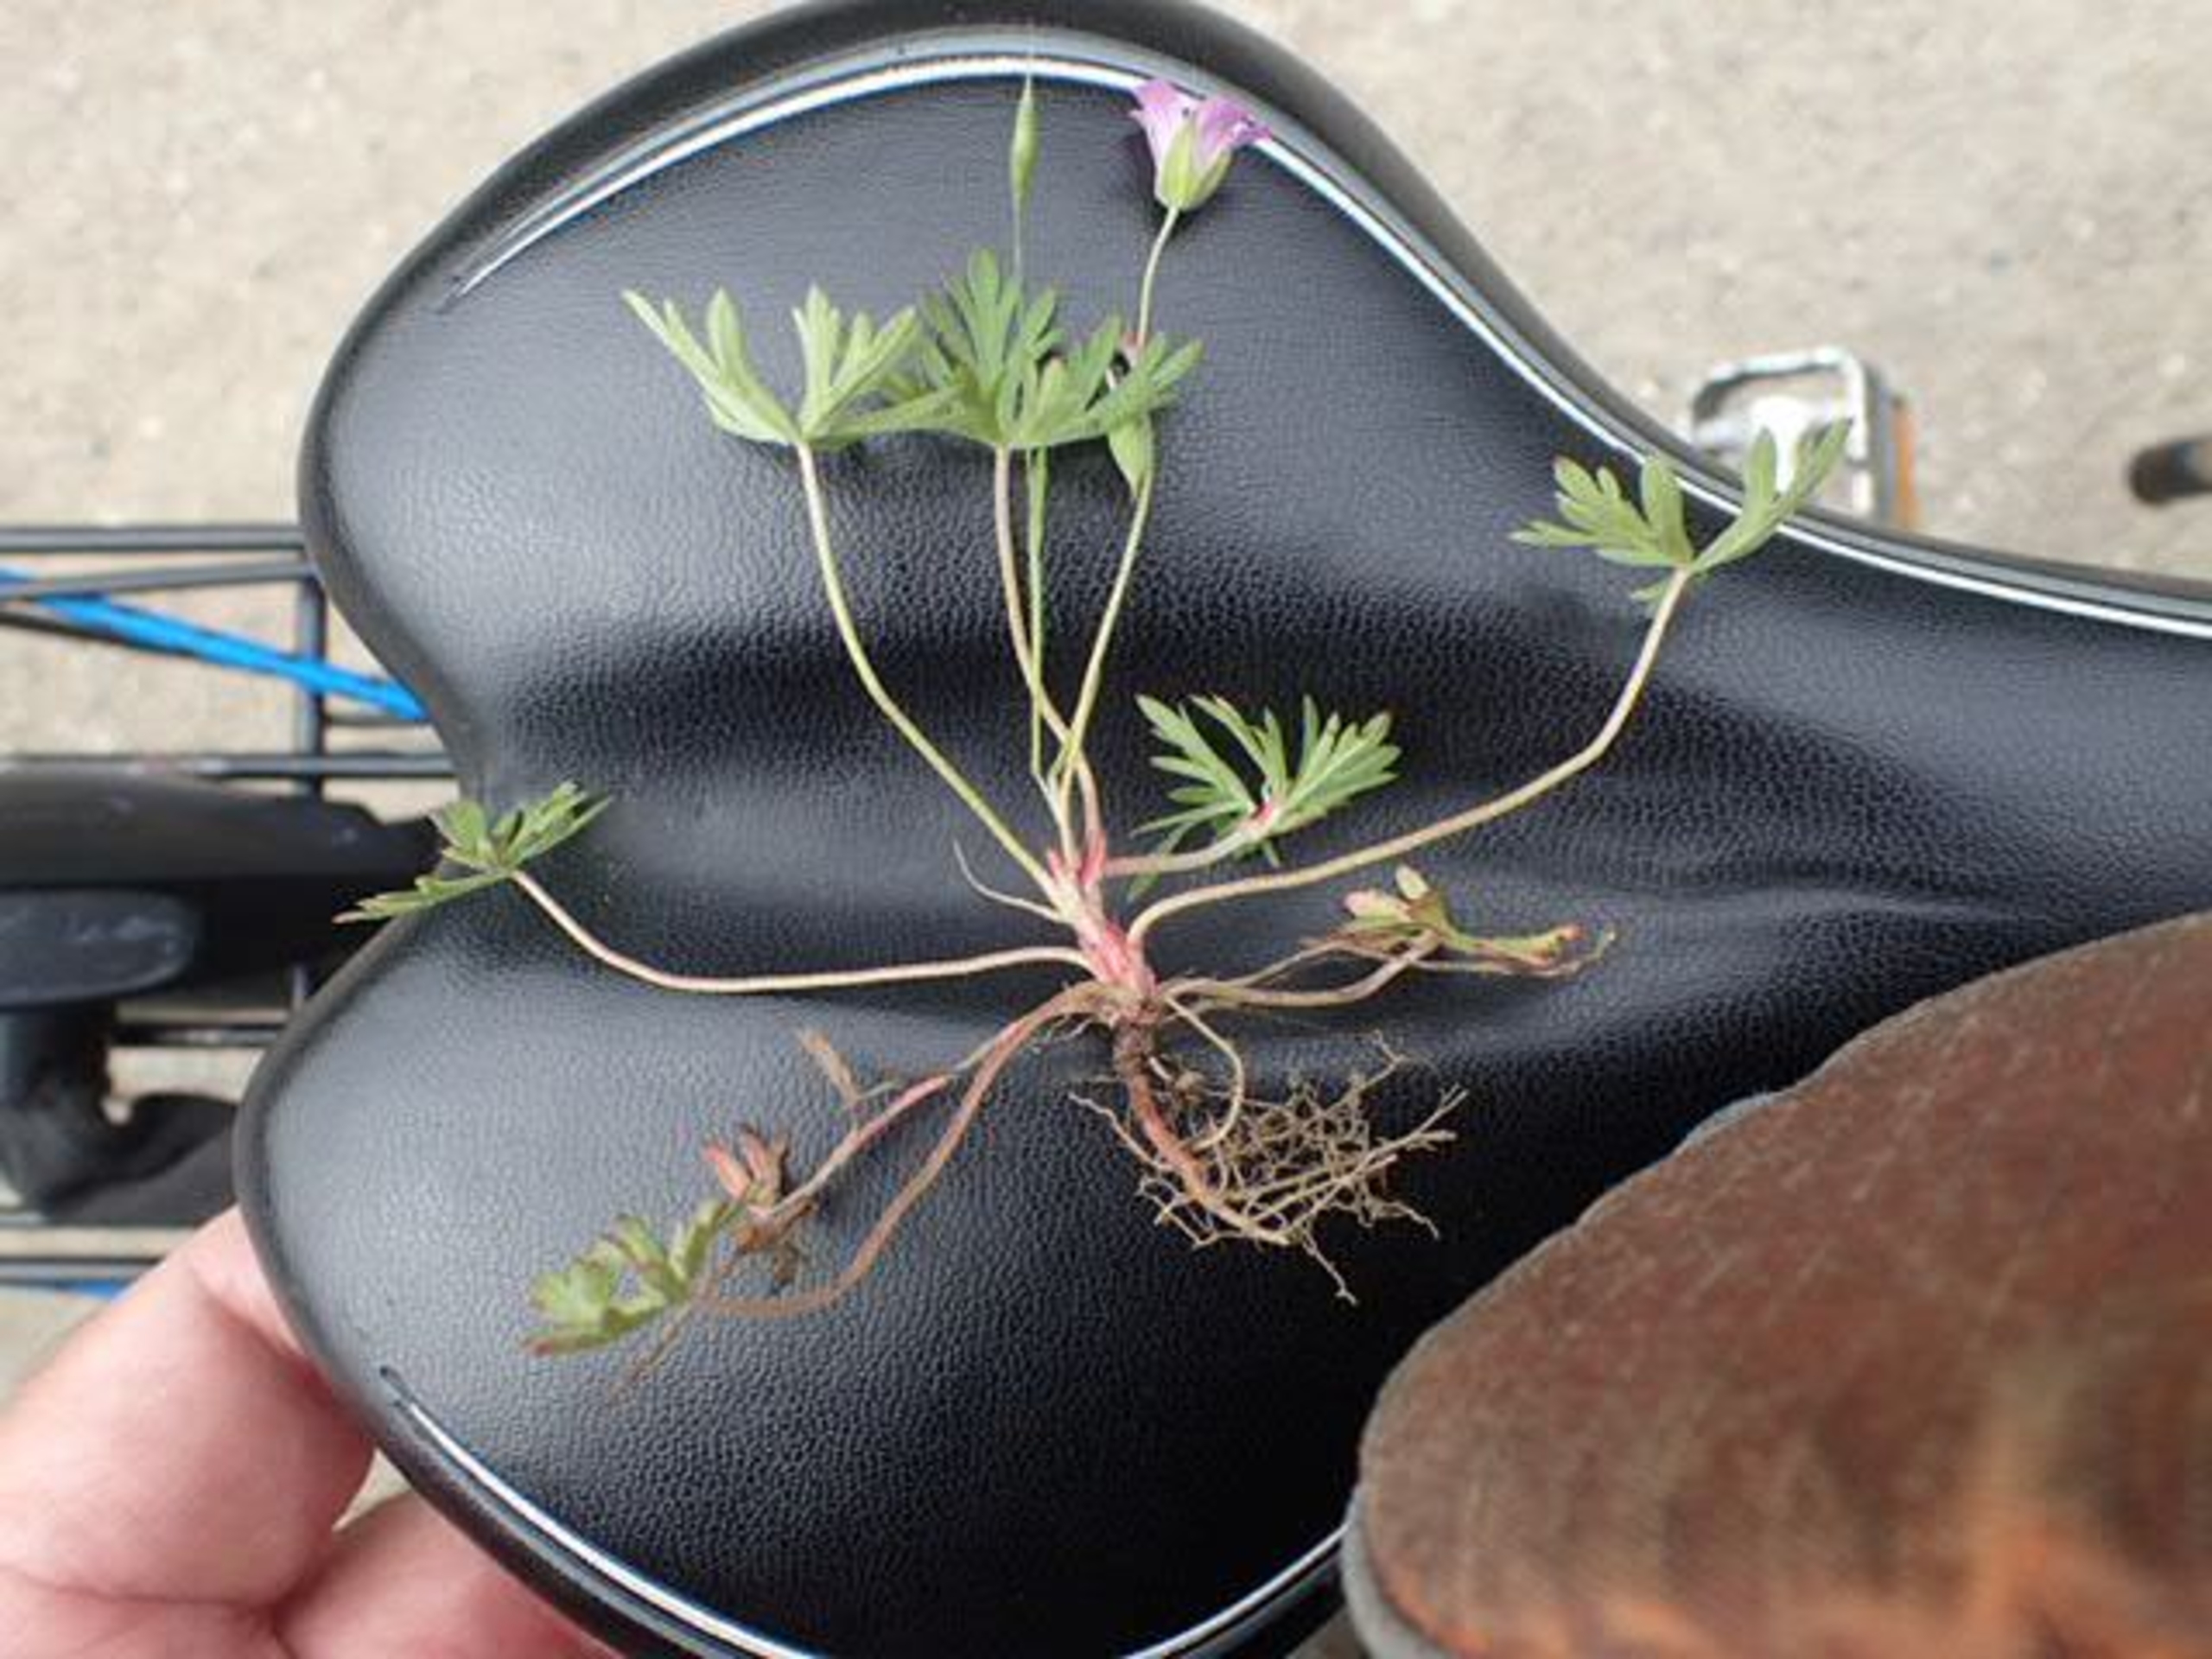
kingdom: Plantae
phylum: Tracheophyta
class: Magnoliopsida
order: Geraniales
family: Geraniaceae
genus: Geranium
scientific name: Geranium columbinum
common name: Storbægret storkenæb
